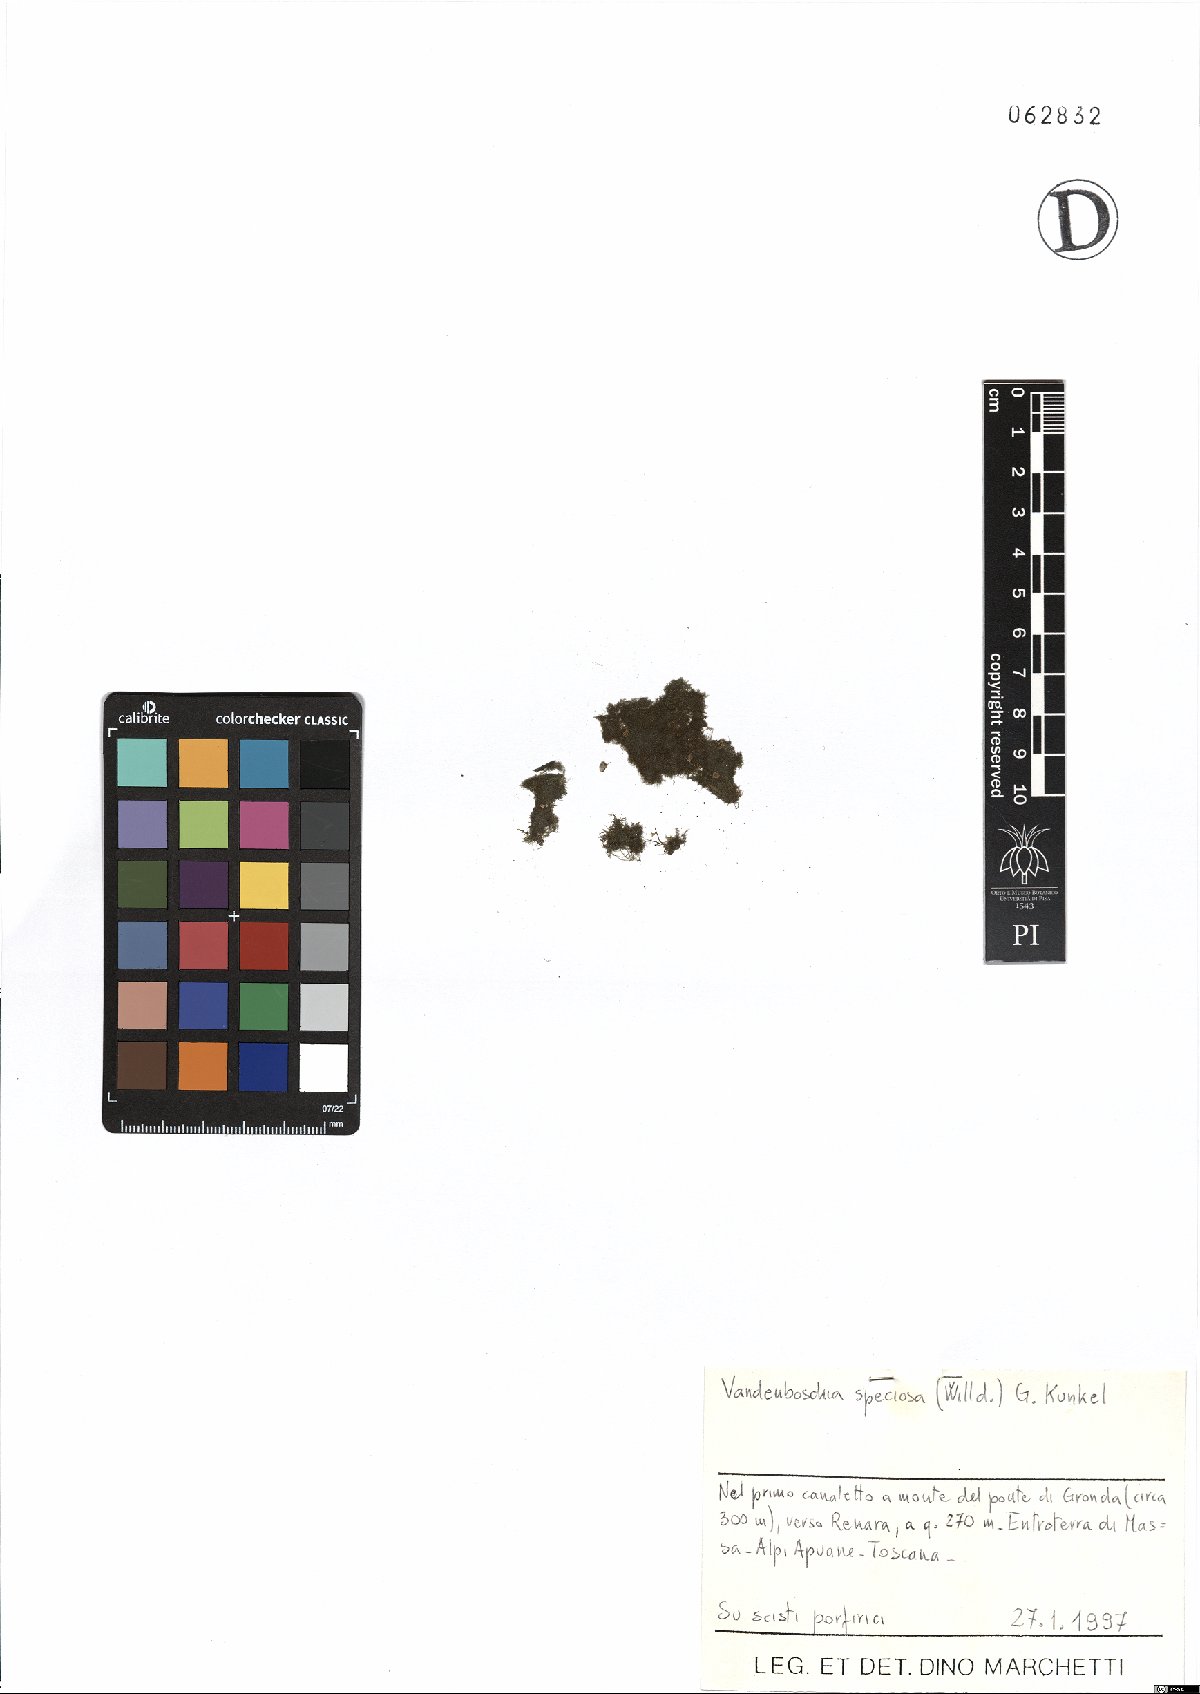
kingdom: Plantae
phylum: Tracheophyta
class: Polypodiopsida
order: Hymenophyllales
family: Hymenophyllaceae
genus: Vandenboschia
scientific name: Vandenboschia speciosa
